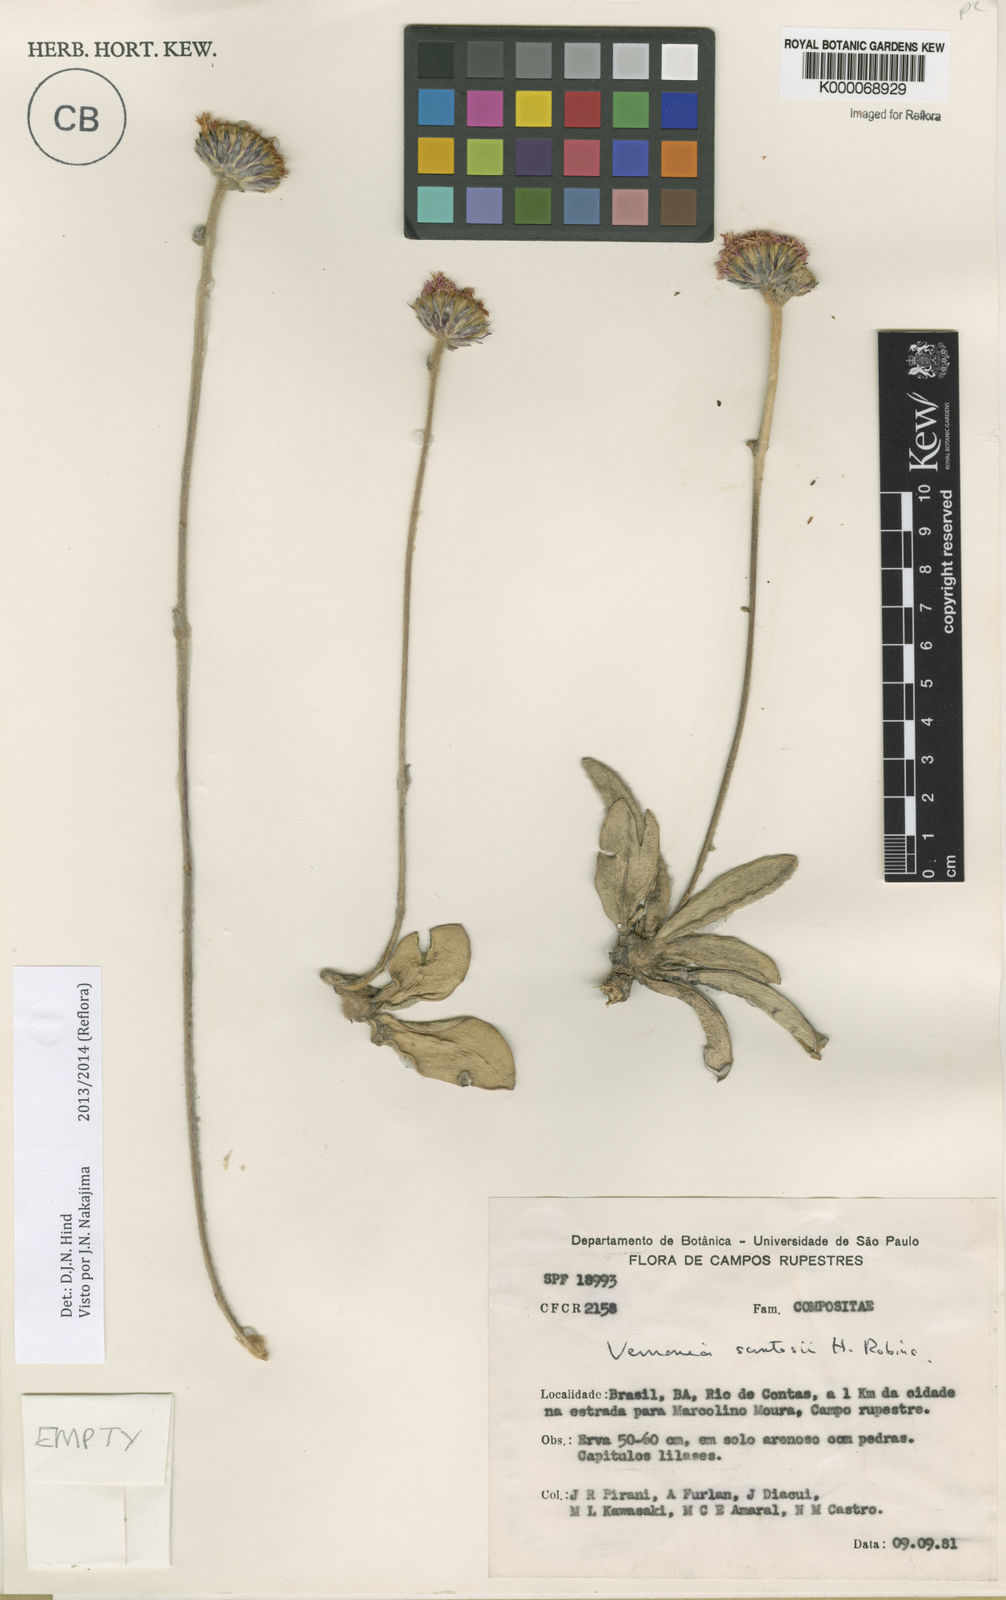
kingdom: Plantae
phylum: Tracheophyta
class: Magnoliopsida
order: Asterales
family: Asteraceae
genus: Lessingianthus
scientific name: Lessingianthus santosii
